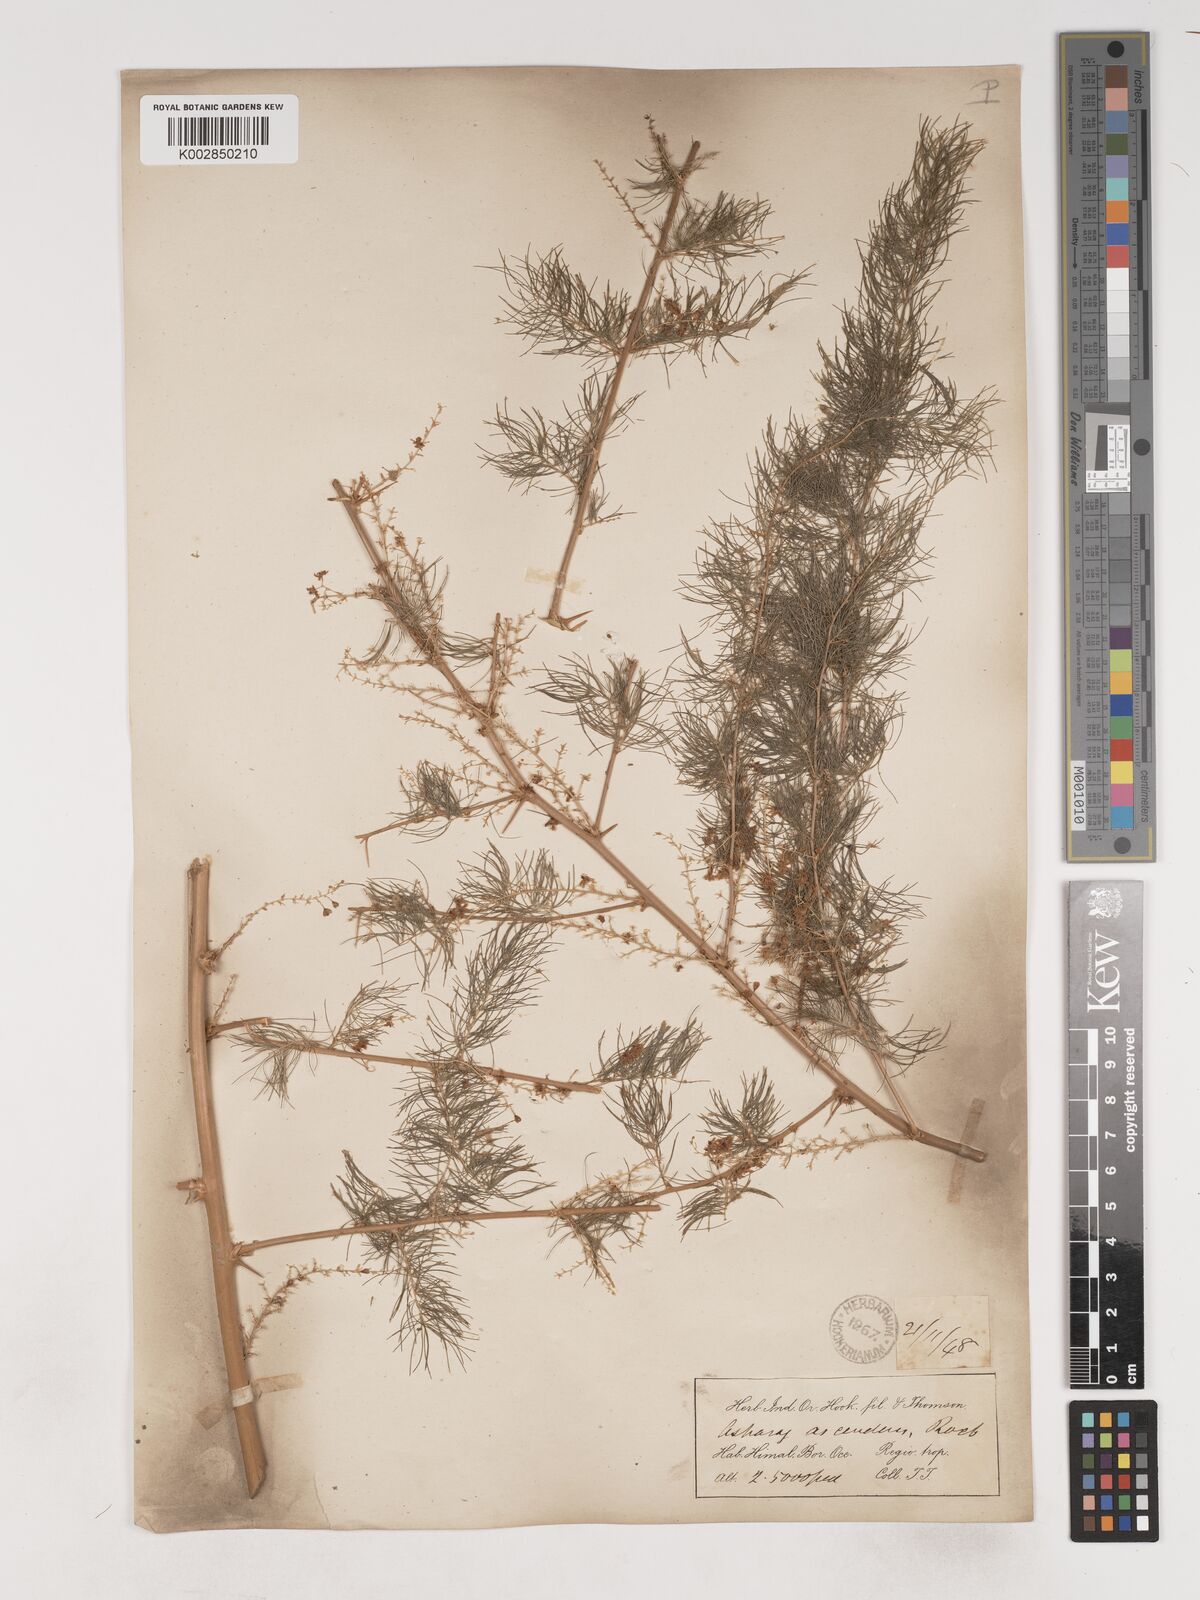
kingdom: Plantae
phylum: Tracheophyta
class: Liliopsida
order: Asparagales
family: Asparagaceae
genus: Asparagus
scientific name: Asparagus adscendens
